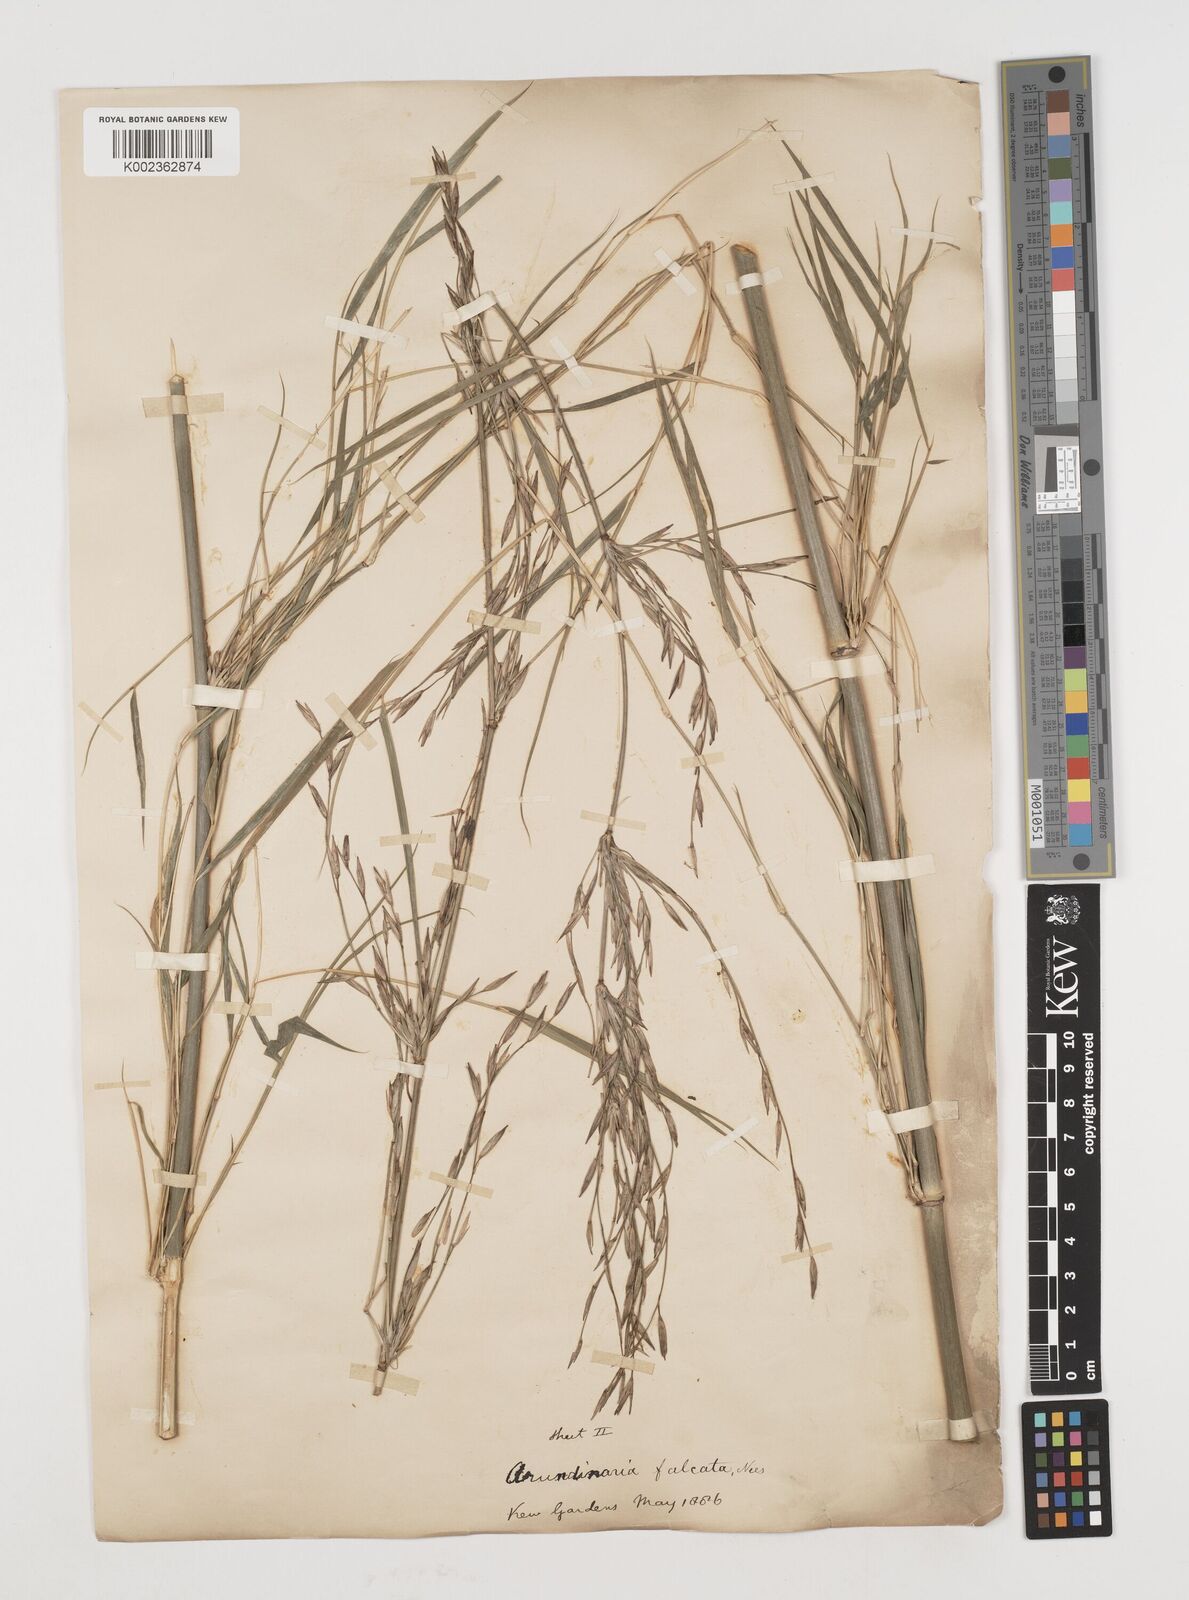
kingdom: Plantae
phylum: Tracheophyta
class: Liliopsida
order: Poales
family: Poaceae
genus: Himalayacalamus
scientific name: Himalayacalamus hookerianus
